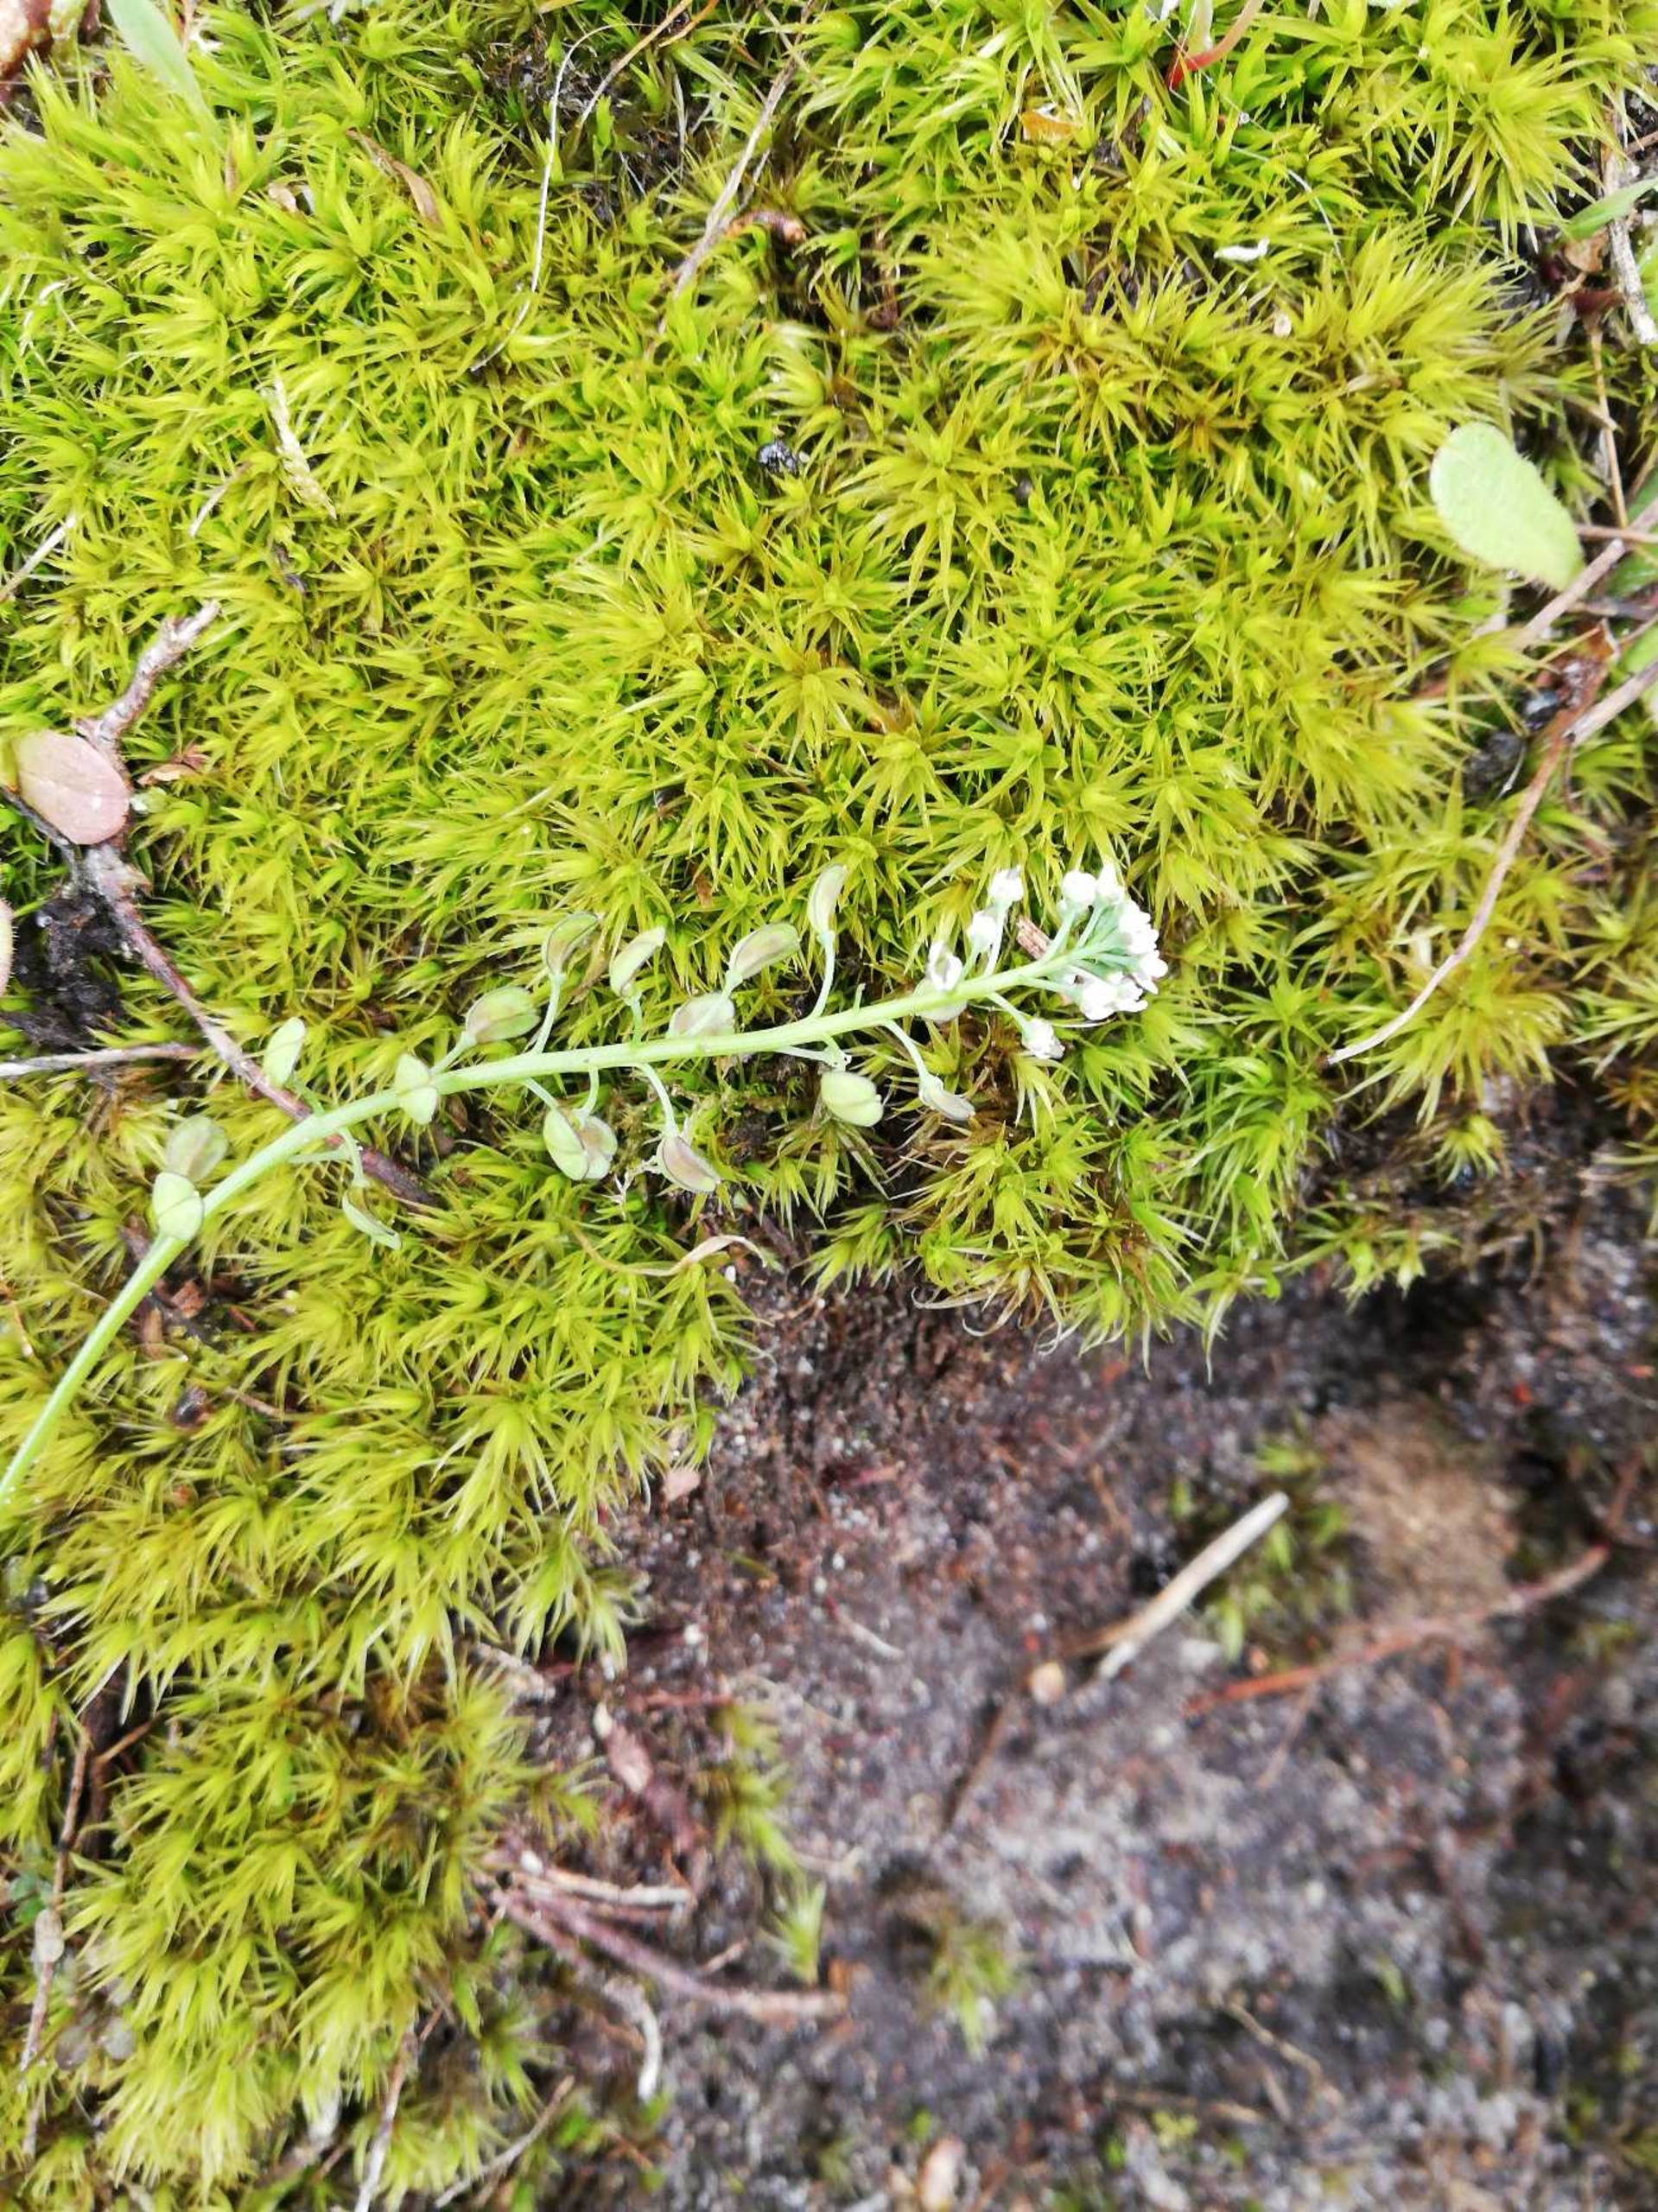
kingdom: Plantae
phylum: Bryophyta
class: Bryopsida
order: Dicranales
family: Dicranaceae
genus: Dicranum
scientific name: Dicranum scoparium
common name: Almindelig kløvtand
